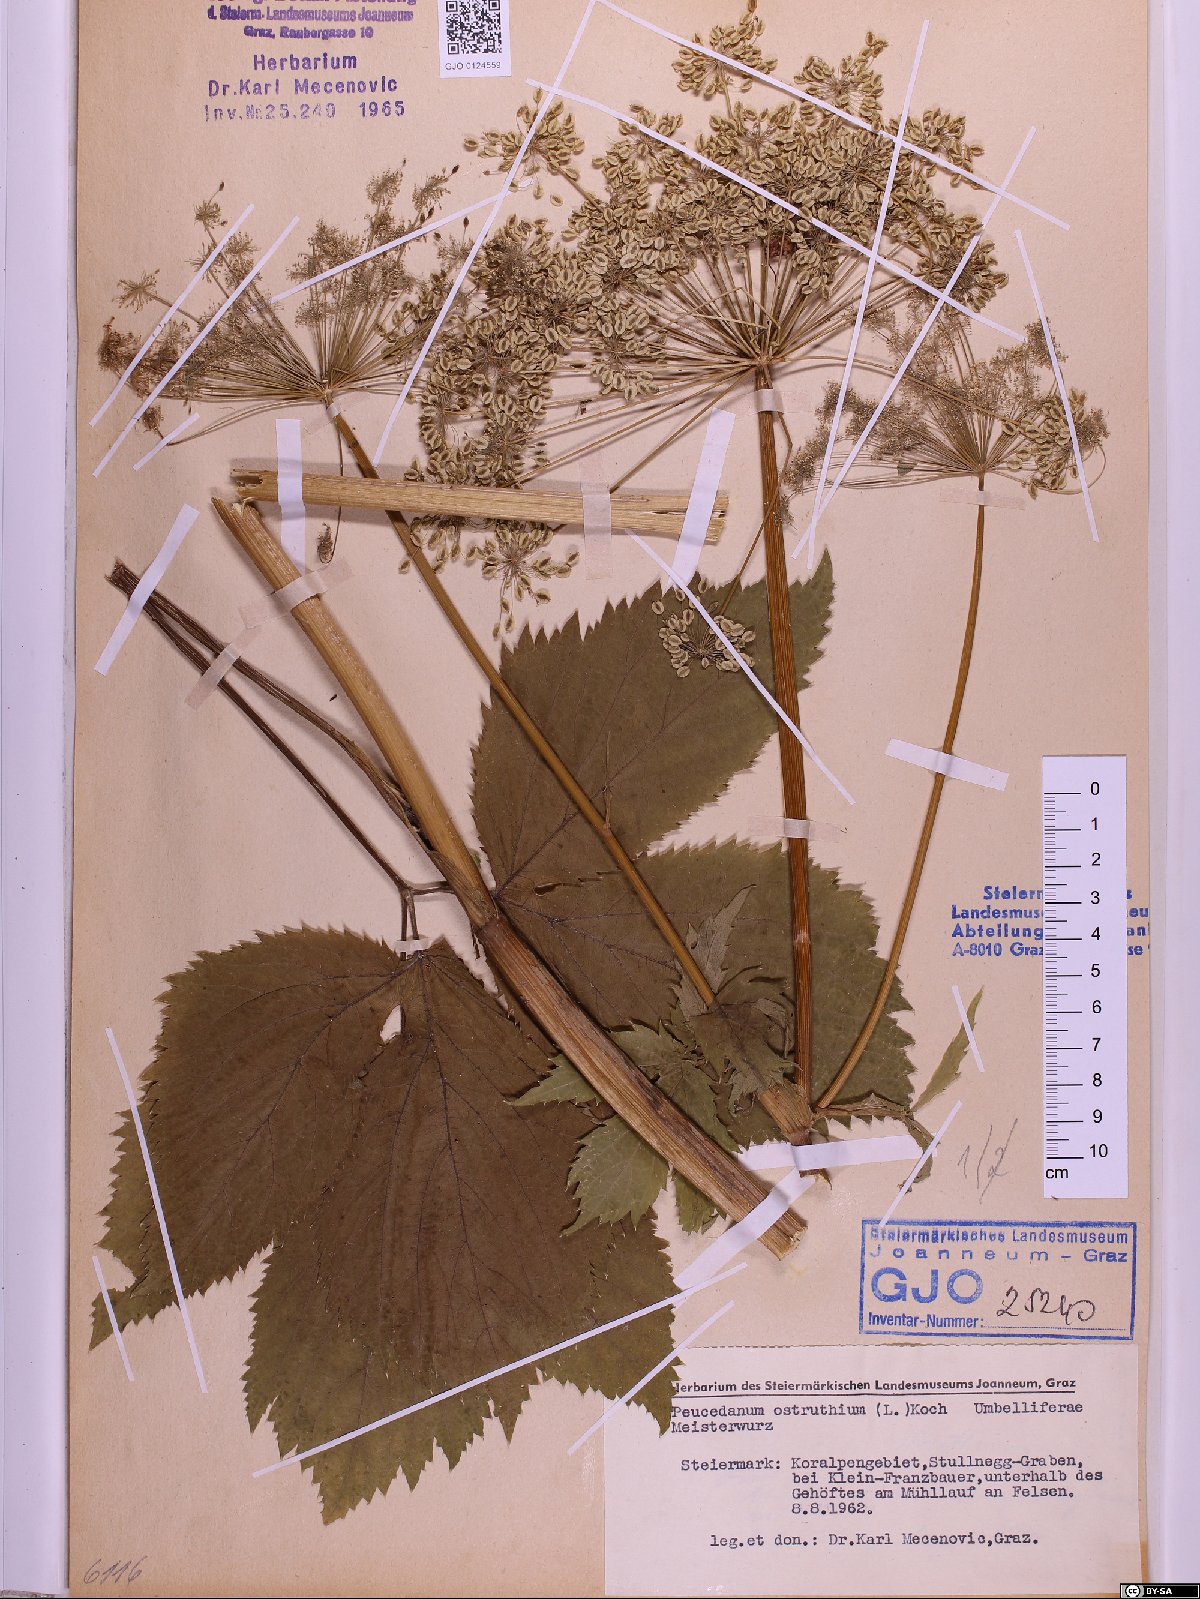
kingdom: Plantae
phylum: Tracheophyta
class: Magnoliopsida
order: Apiales
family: Apiaceae
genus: Imperatoria
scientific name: Imperatoria ostruthium
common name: Masterwort
